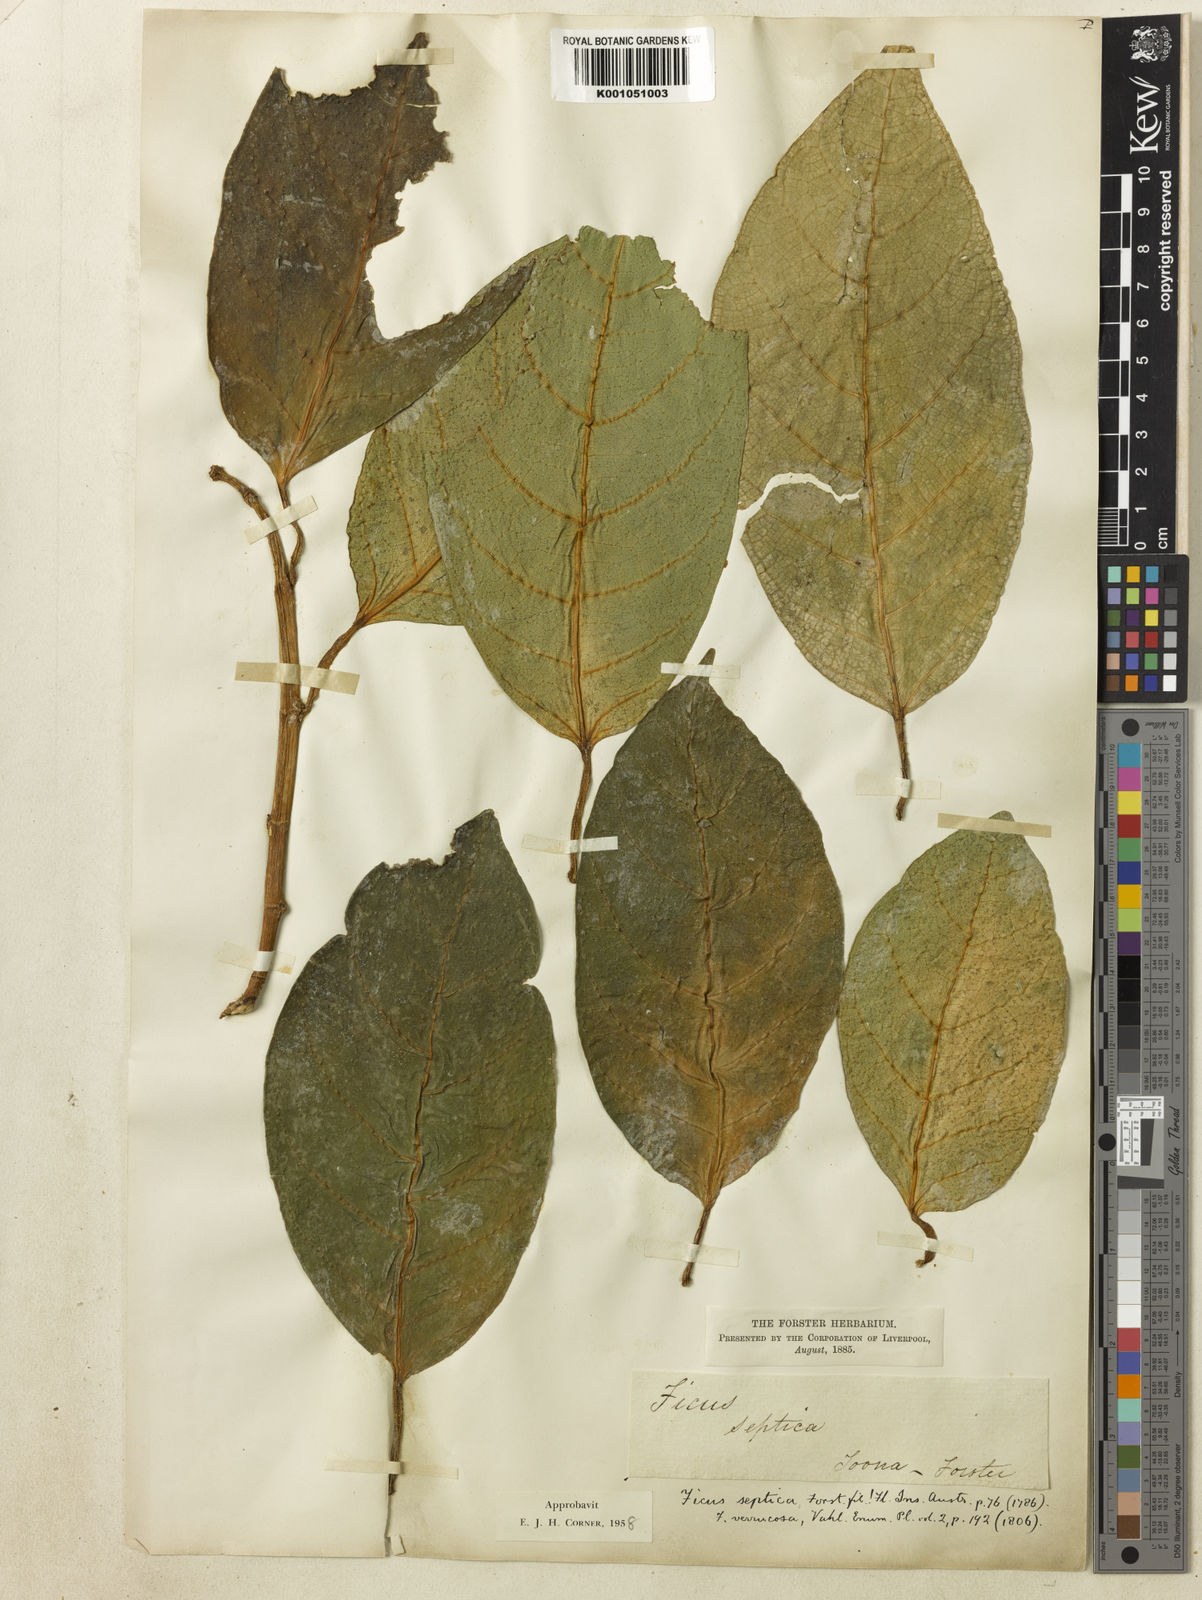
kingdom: Plantae
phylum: Tracheophyta
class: Magnoliopsida
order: Rosales
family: Moraceae
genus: Ficus
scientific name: Ficus
